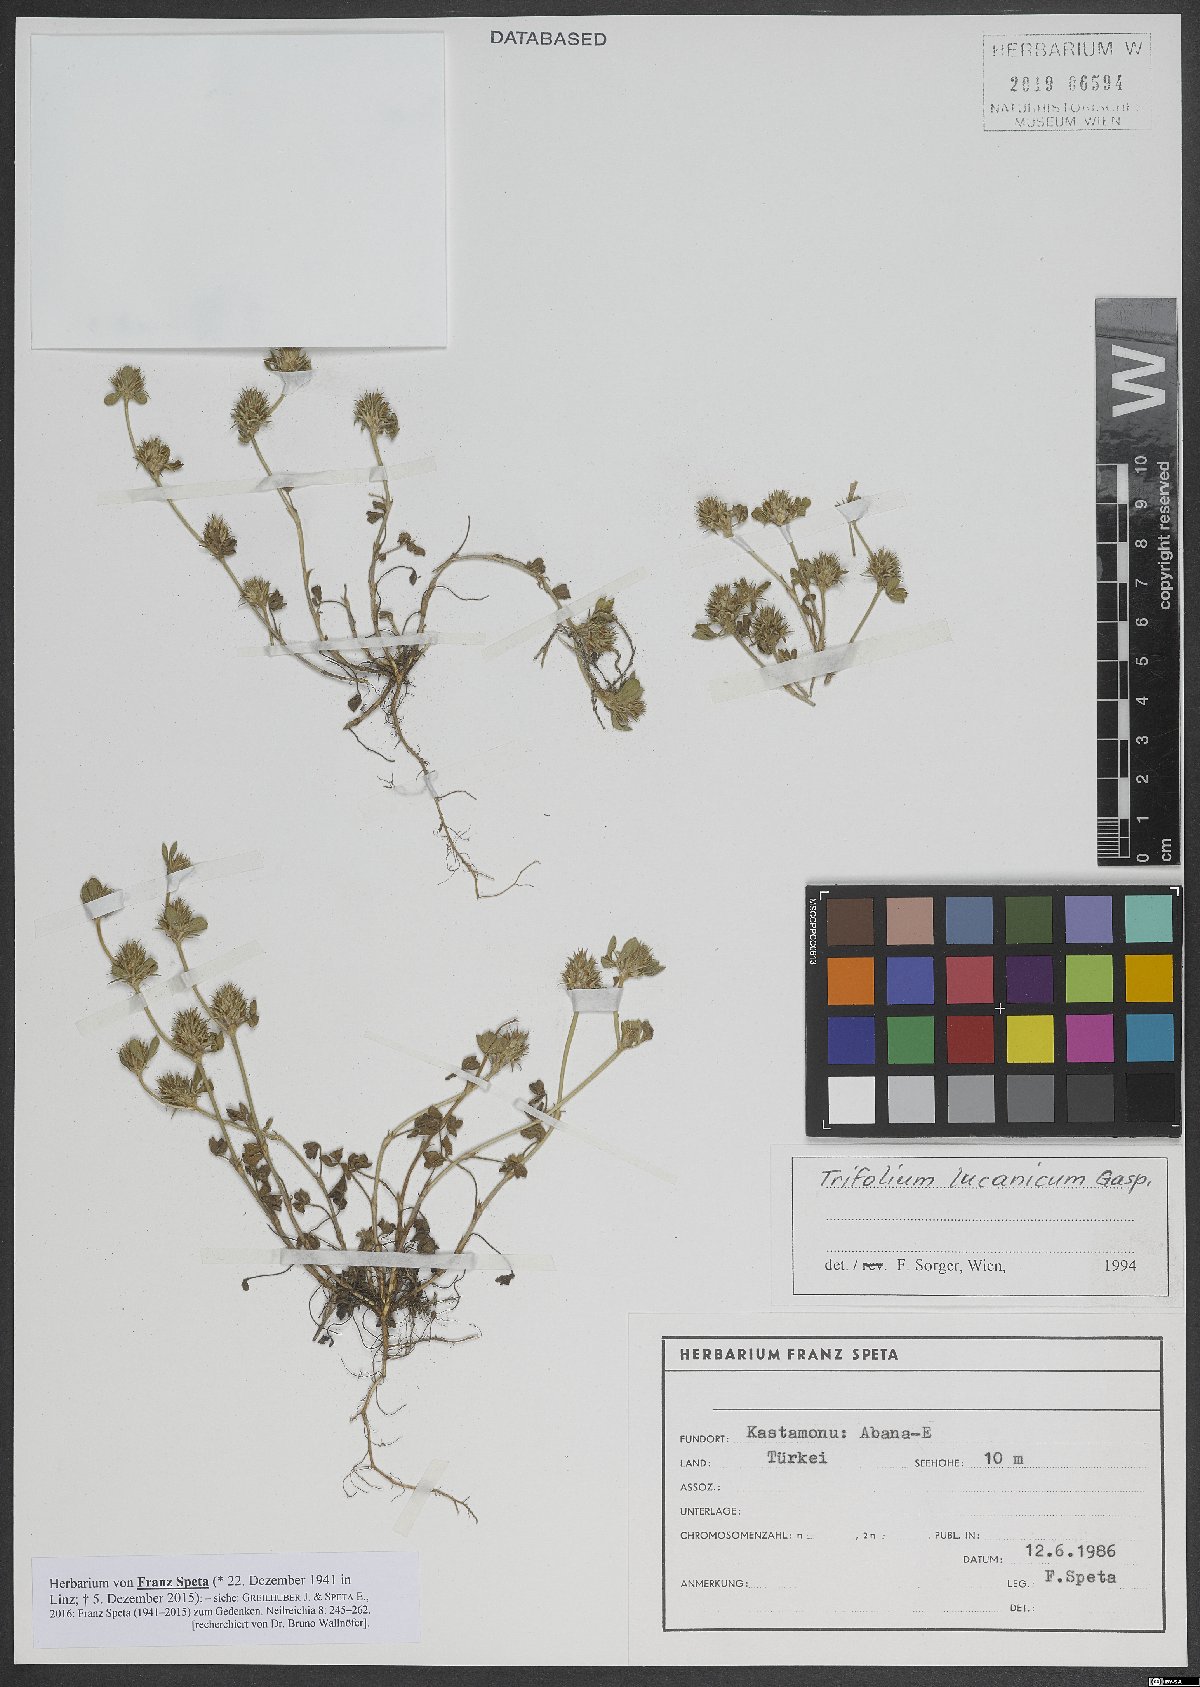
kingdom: Plantae
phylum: Tracheophyta
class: Magnoliopsida
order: Fabales
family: Fabaceae
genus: Trifolium
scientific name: Trifolium lucanicum
